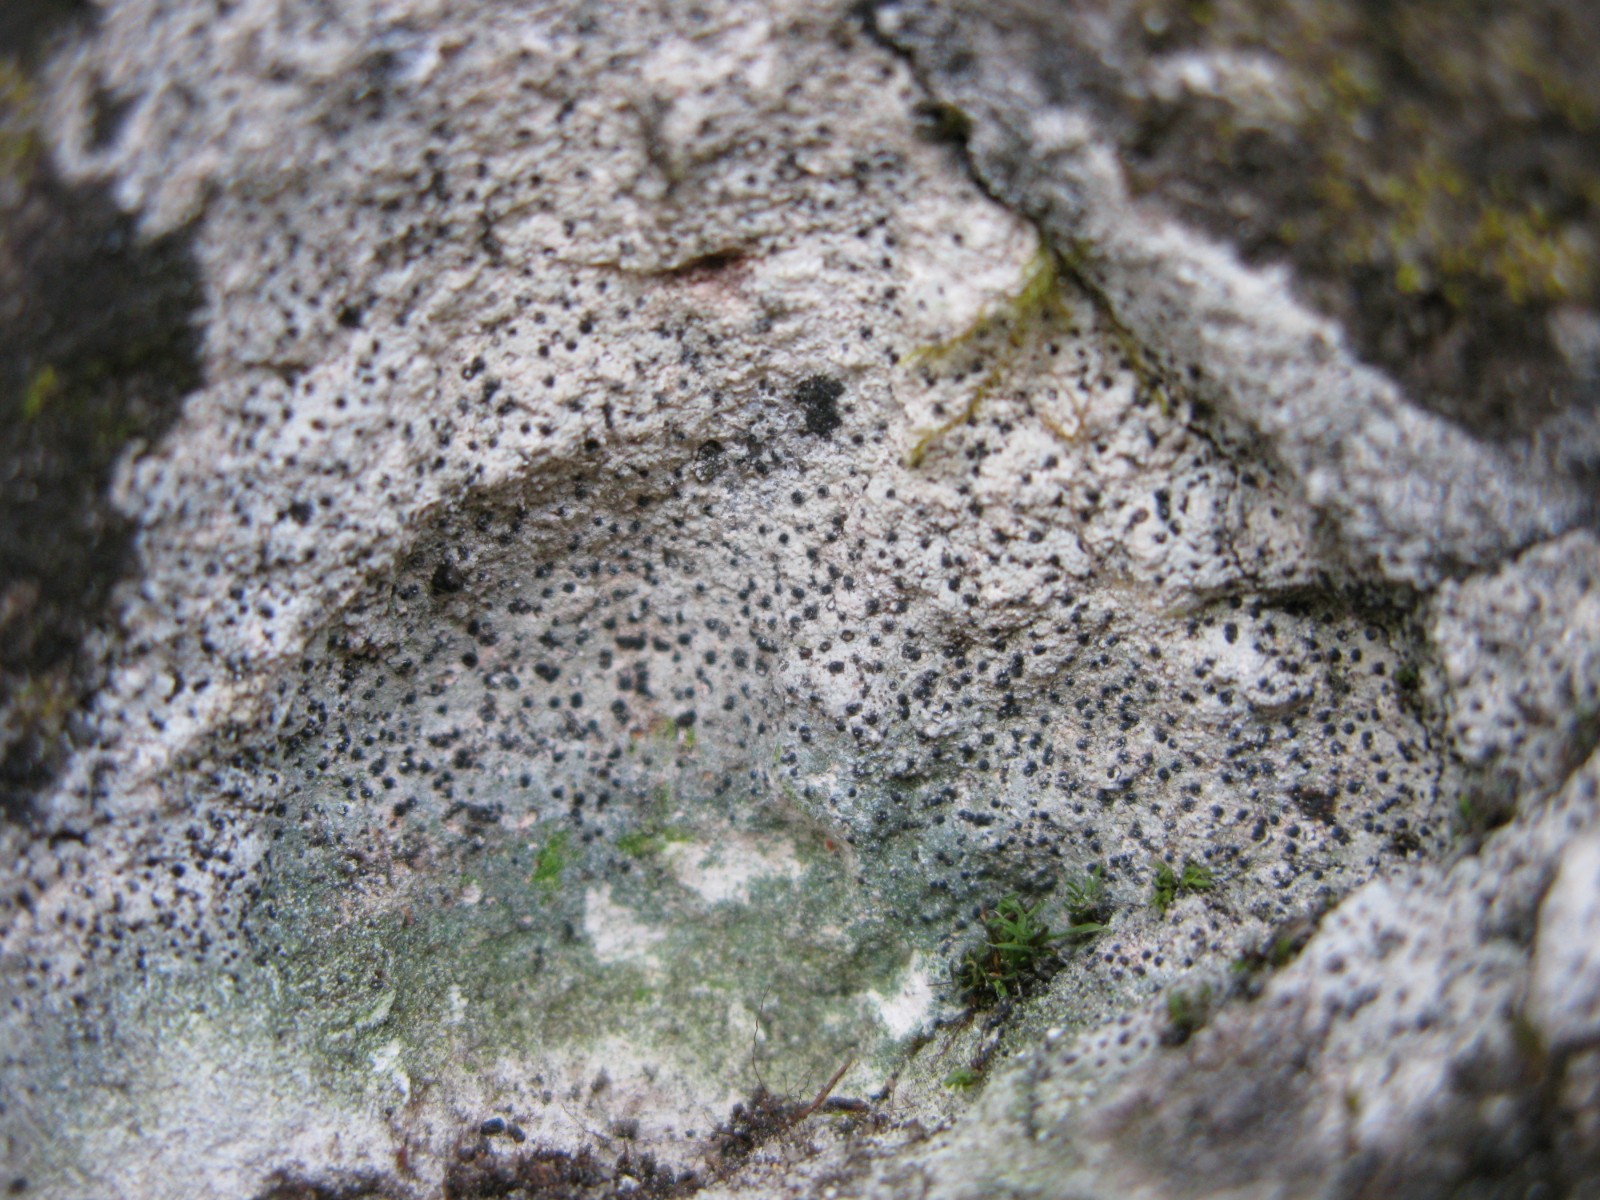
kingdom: Fungi
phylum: Ascomycota
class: Eurotiomycetes
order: Verrucariales
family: Verrucariaceae
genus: Verrucaria
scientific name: Verrucaria dolosa
